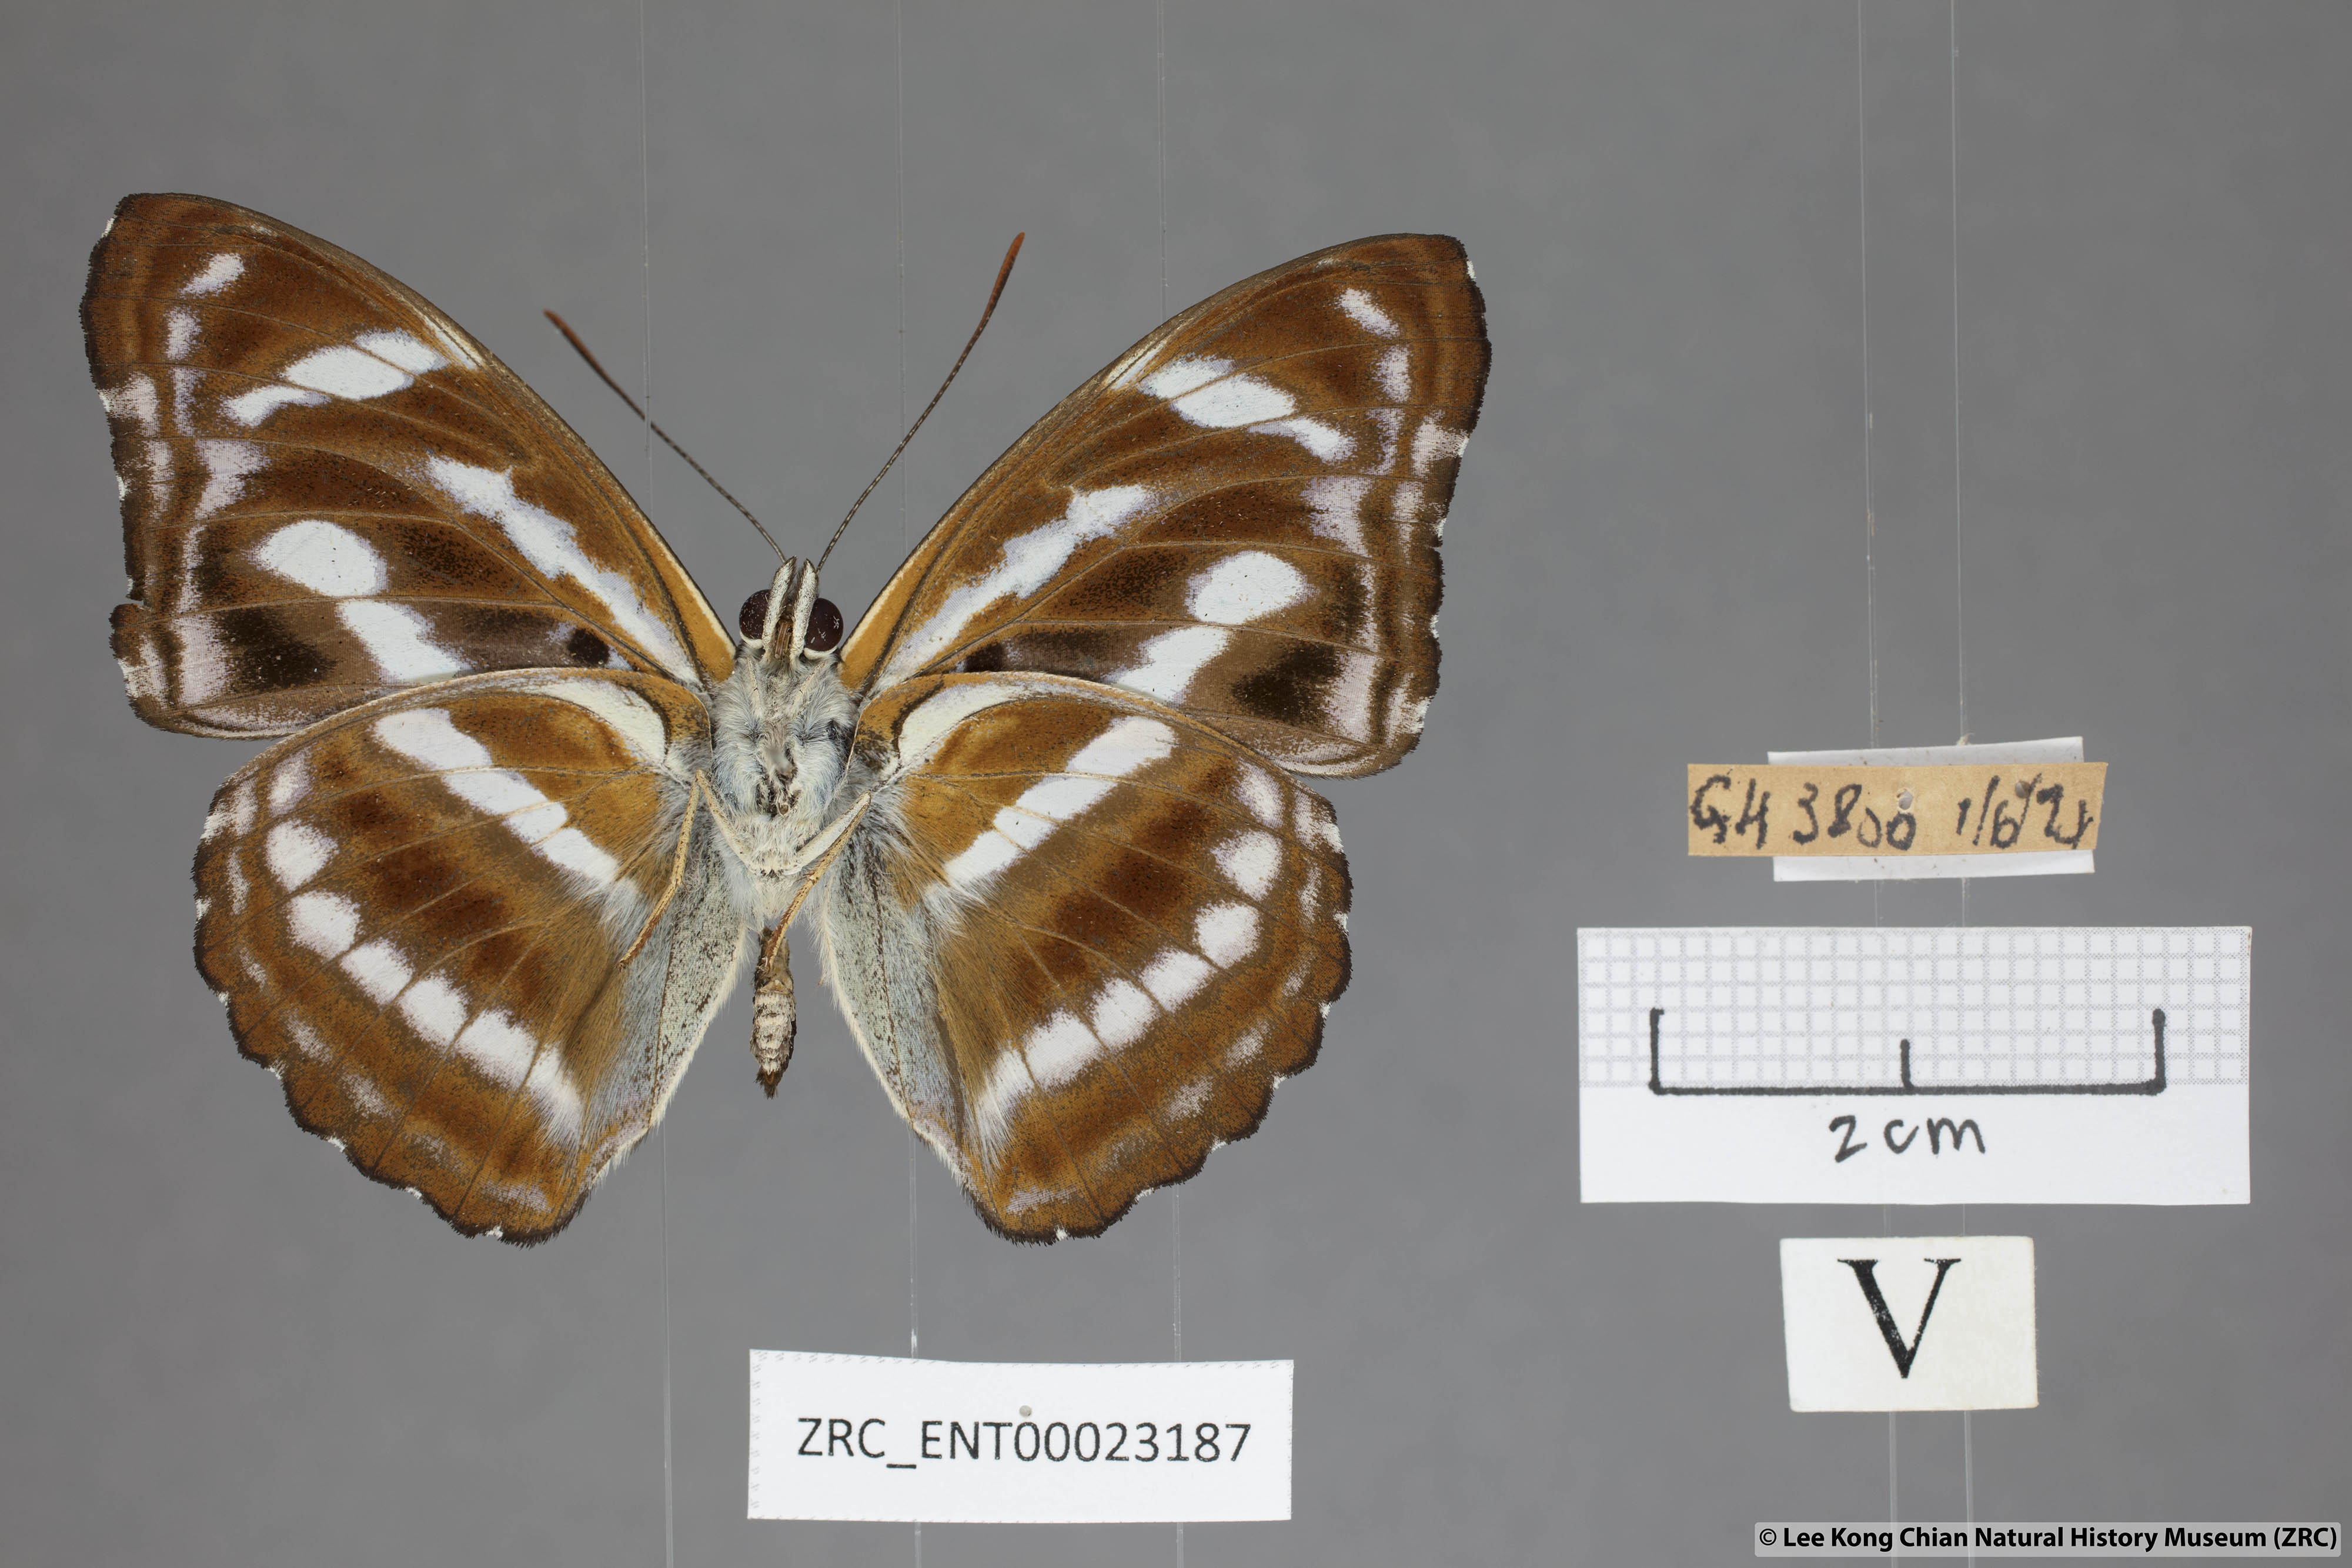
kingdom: Animalia
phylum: Arthropoda
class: Insecta
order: Lepidoptera
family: Nymphalidae
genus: Pantoporia
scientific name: Pantoporia cama
